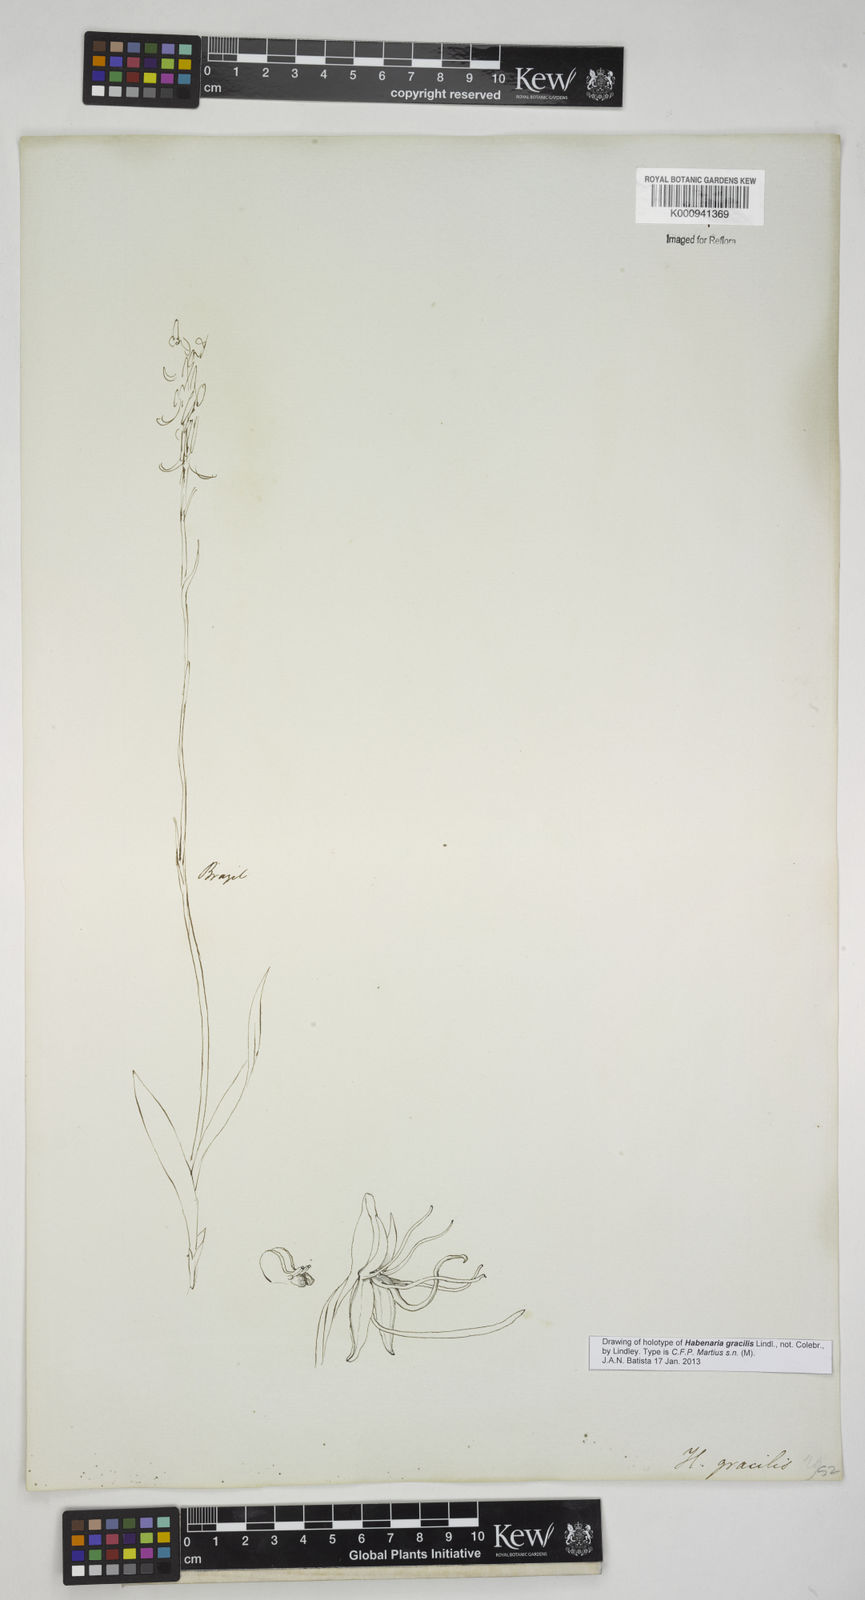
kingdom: Plantae
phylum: Tracheophyta
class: Liliopsida
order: Asparagales
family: Orchidaceae
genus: Habenaria
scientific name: Habenaria gracilis
